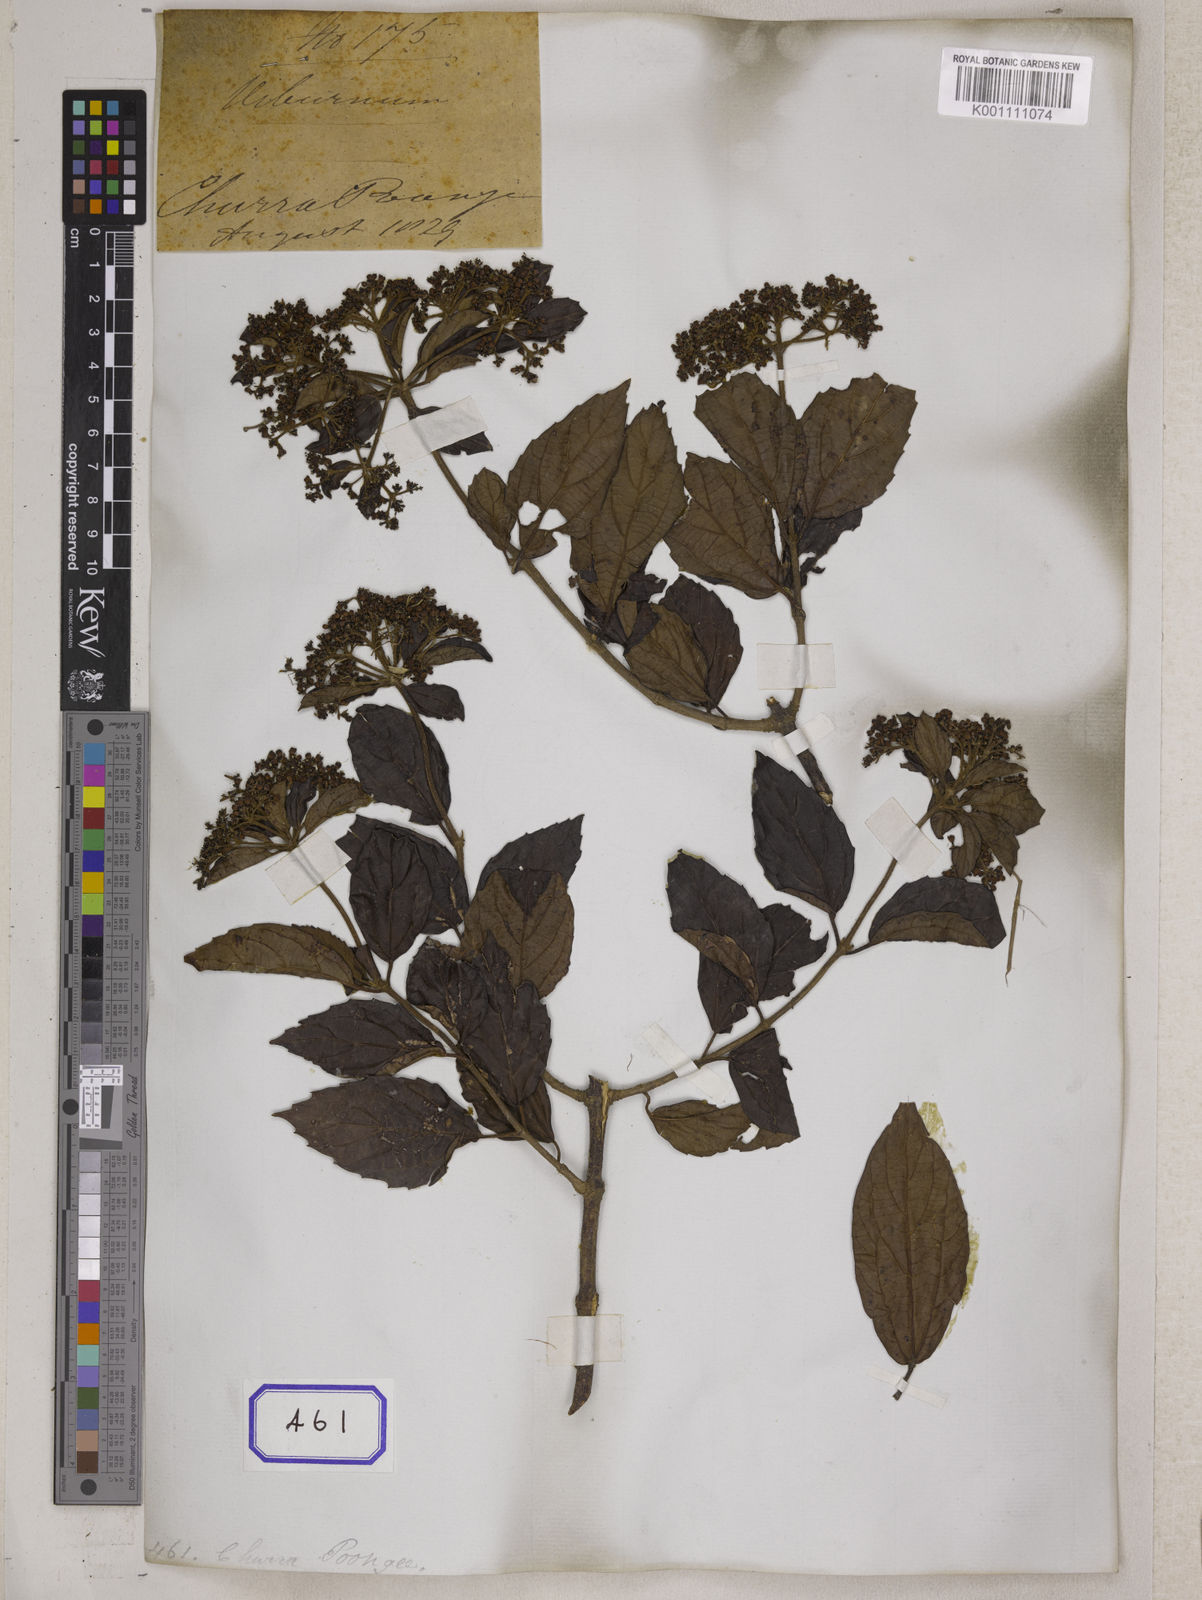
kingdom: Plantae
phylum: Tracheophyta
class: Magnoliopsida
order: Dipsacales
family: Viburnaceae
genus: Viburnum
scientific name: Viburnum
